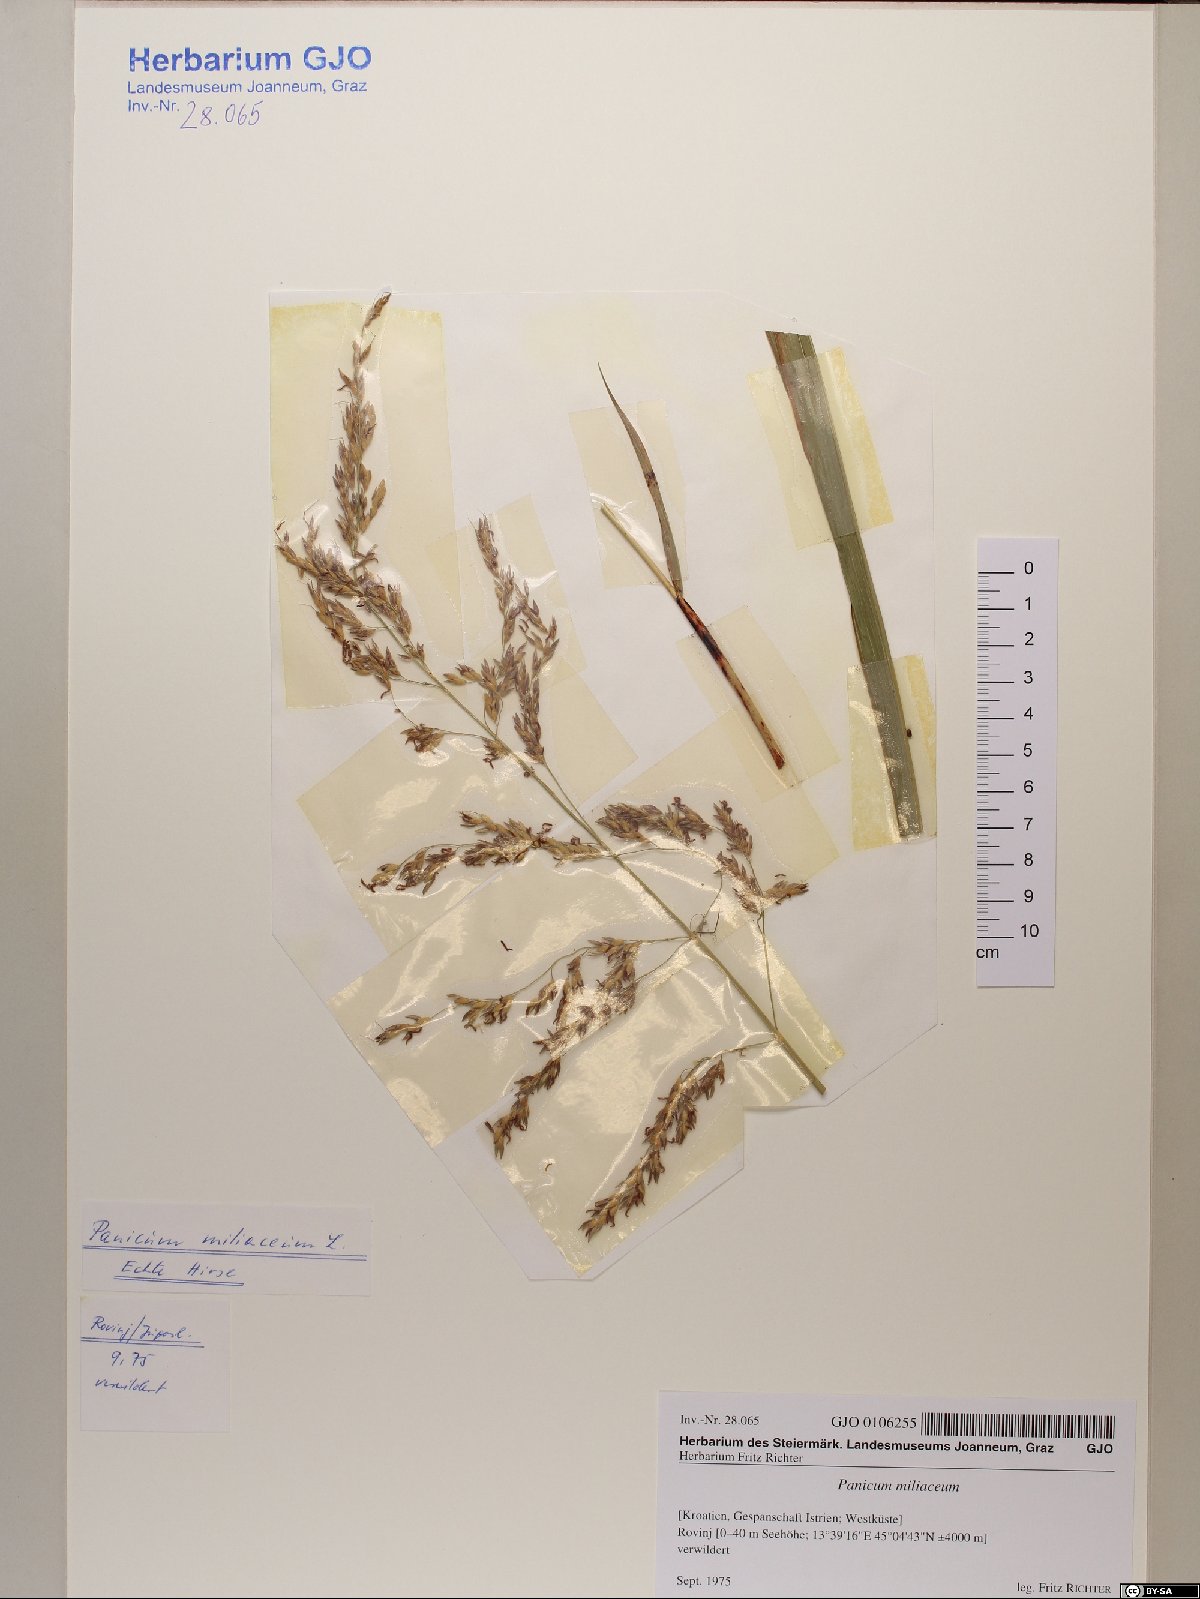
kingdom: Plantae
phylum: Tracheophyta
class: Liliopsida
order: Poales
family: Poaceae
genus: Sorghum
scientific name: Sorghum halepense
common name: Johnson-grass
